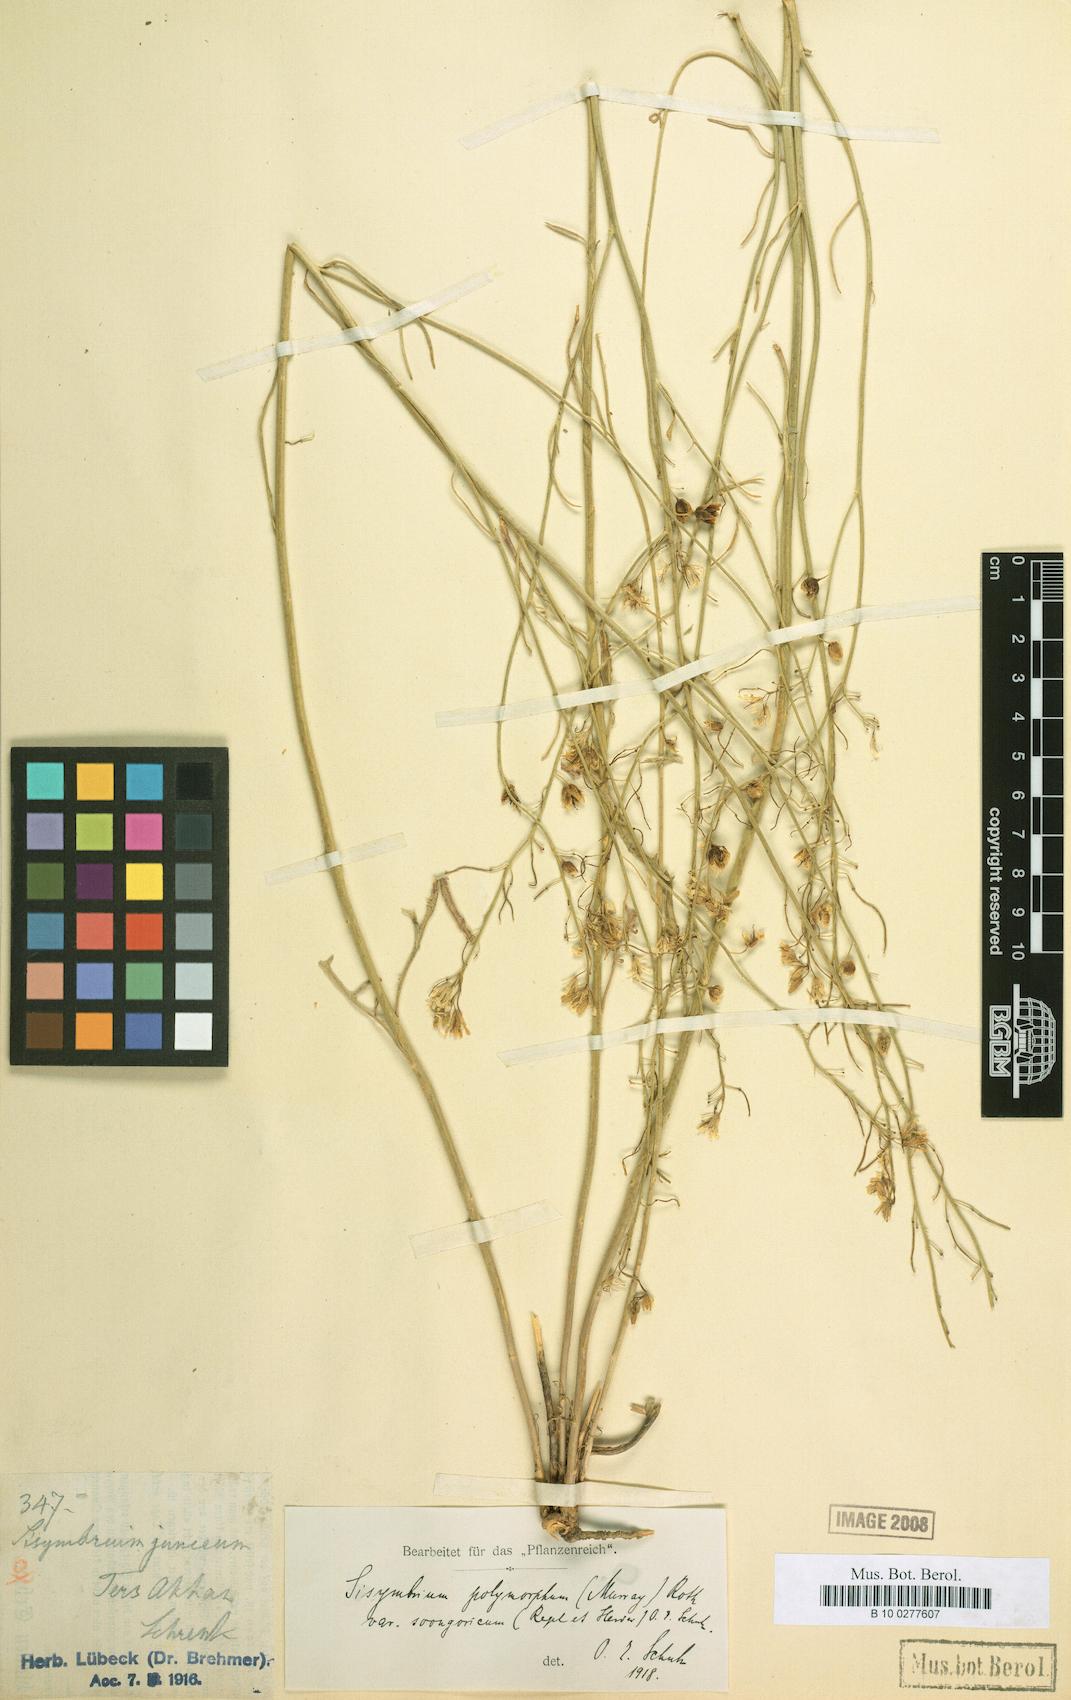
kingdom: Plantae
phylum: Tracheophyta
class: Magnoliopsida
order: Brassicales
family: Brassicaceae
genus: Sisymbrium
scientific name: Sisymbrium polymorphum
